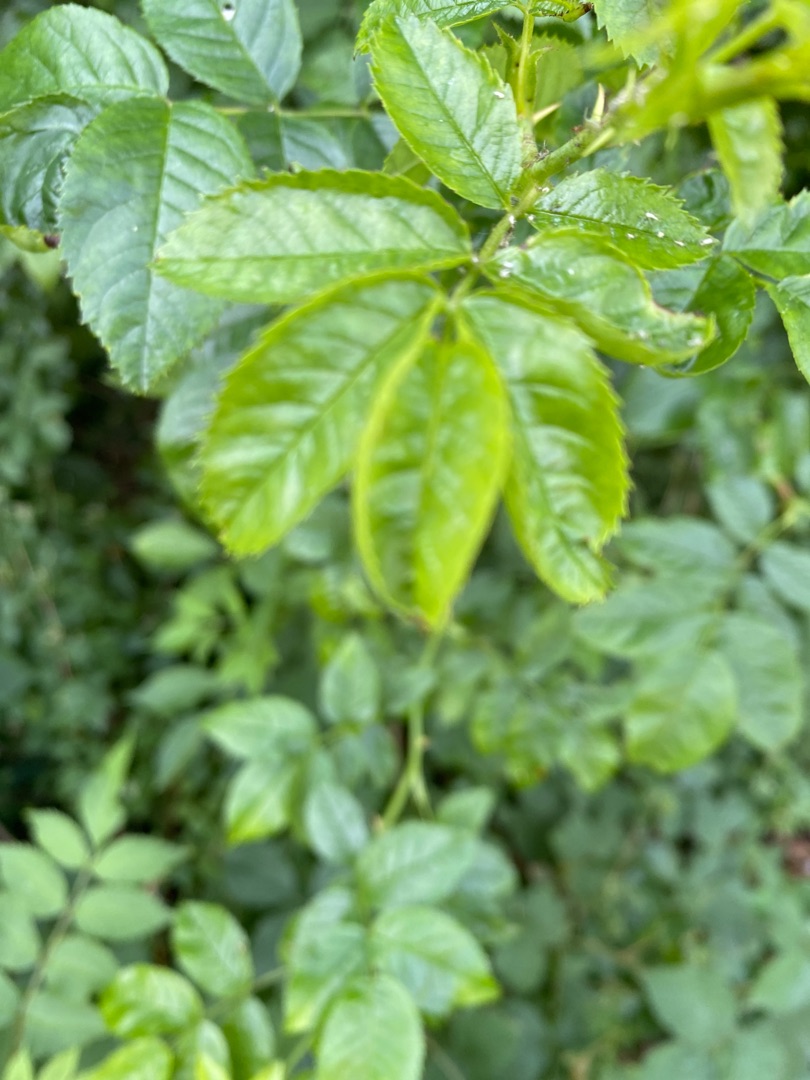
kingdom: Plantae
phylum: Tracheophyta
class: Magnoliopsida
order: Lamiales
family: Lamiaceae
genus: Prunella
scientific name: Prunella vulgaris
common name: Almindelig brunelle
